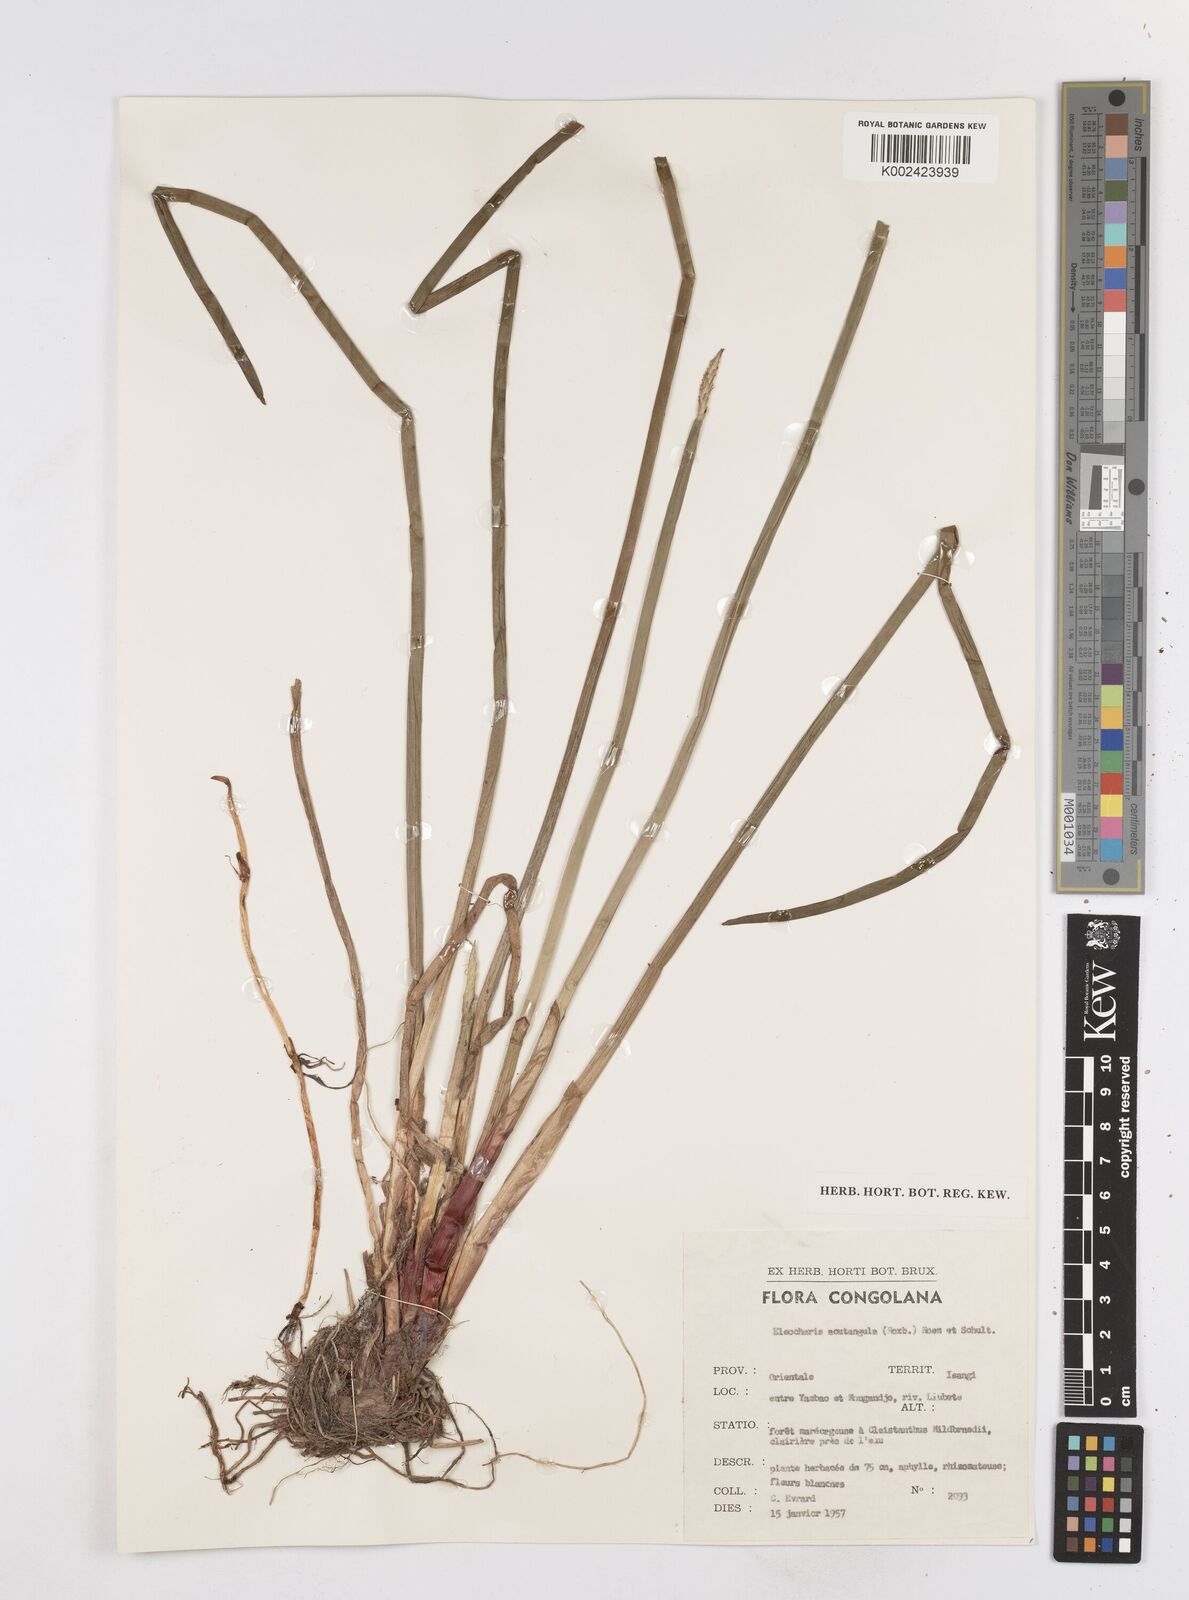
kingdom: Plantae
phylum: Tracheophyta
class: Liliopsida
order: Poales
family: Cyperaceae
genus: Eleocharis
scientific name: Eleocharis acutangula
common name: Acute spikerush
